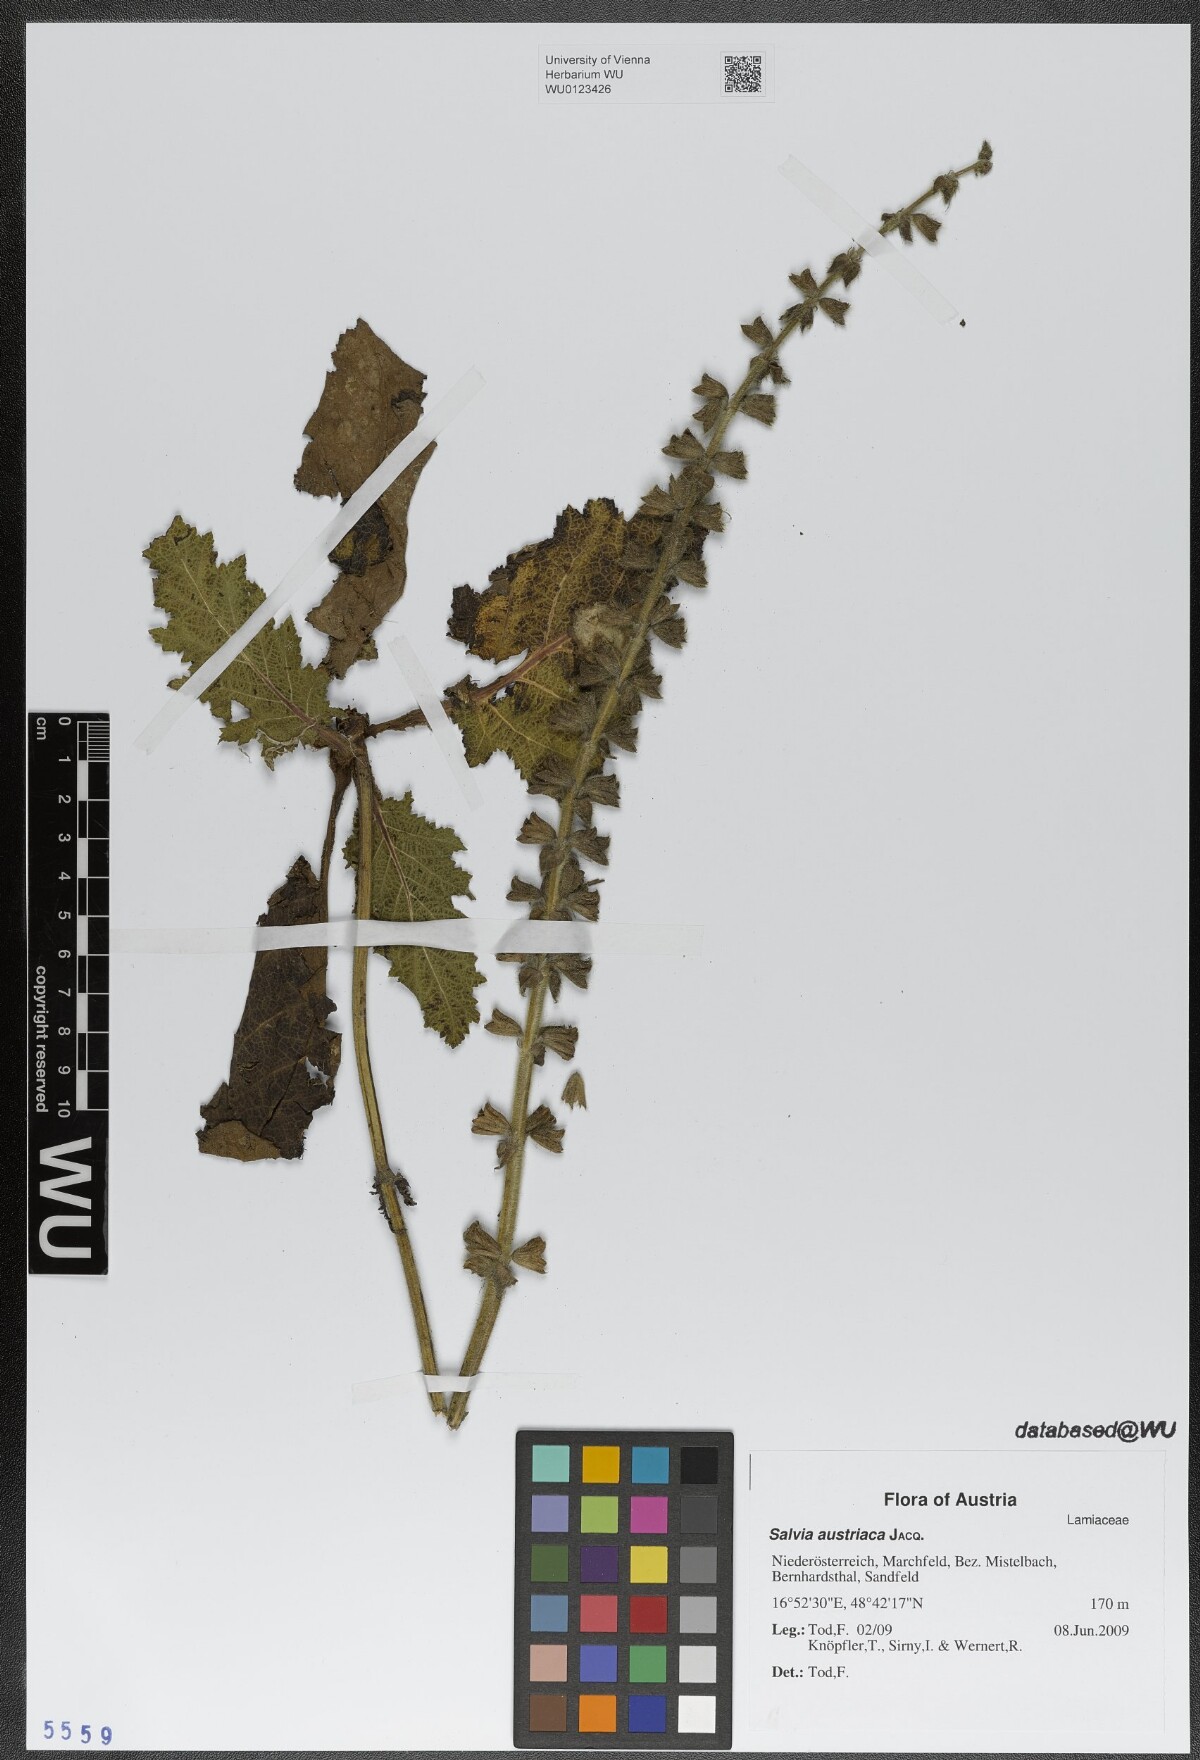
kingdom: Plantae
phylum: Tracheophyta
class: Magnoliopsida
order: Lamiales
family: Lamiaceae
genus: Salvia
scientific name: Salvia austriaca
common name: Austrian sage
